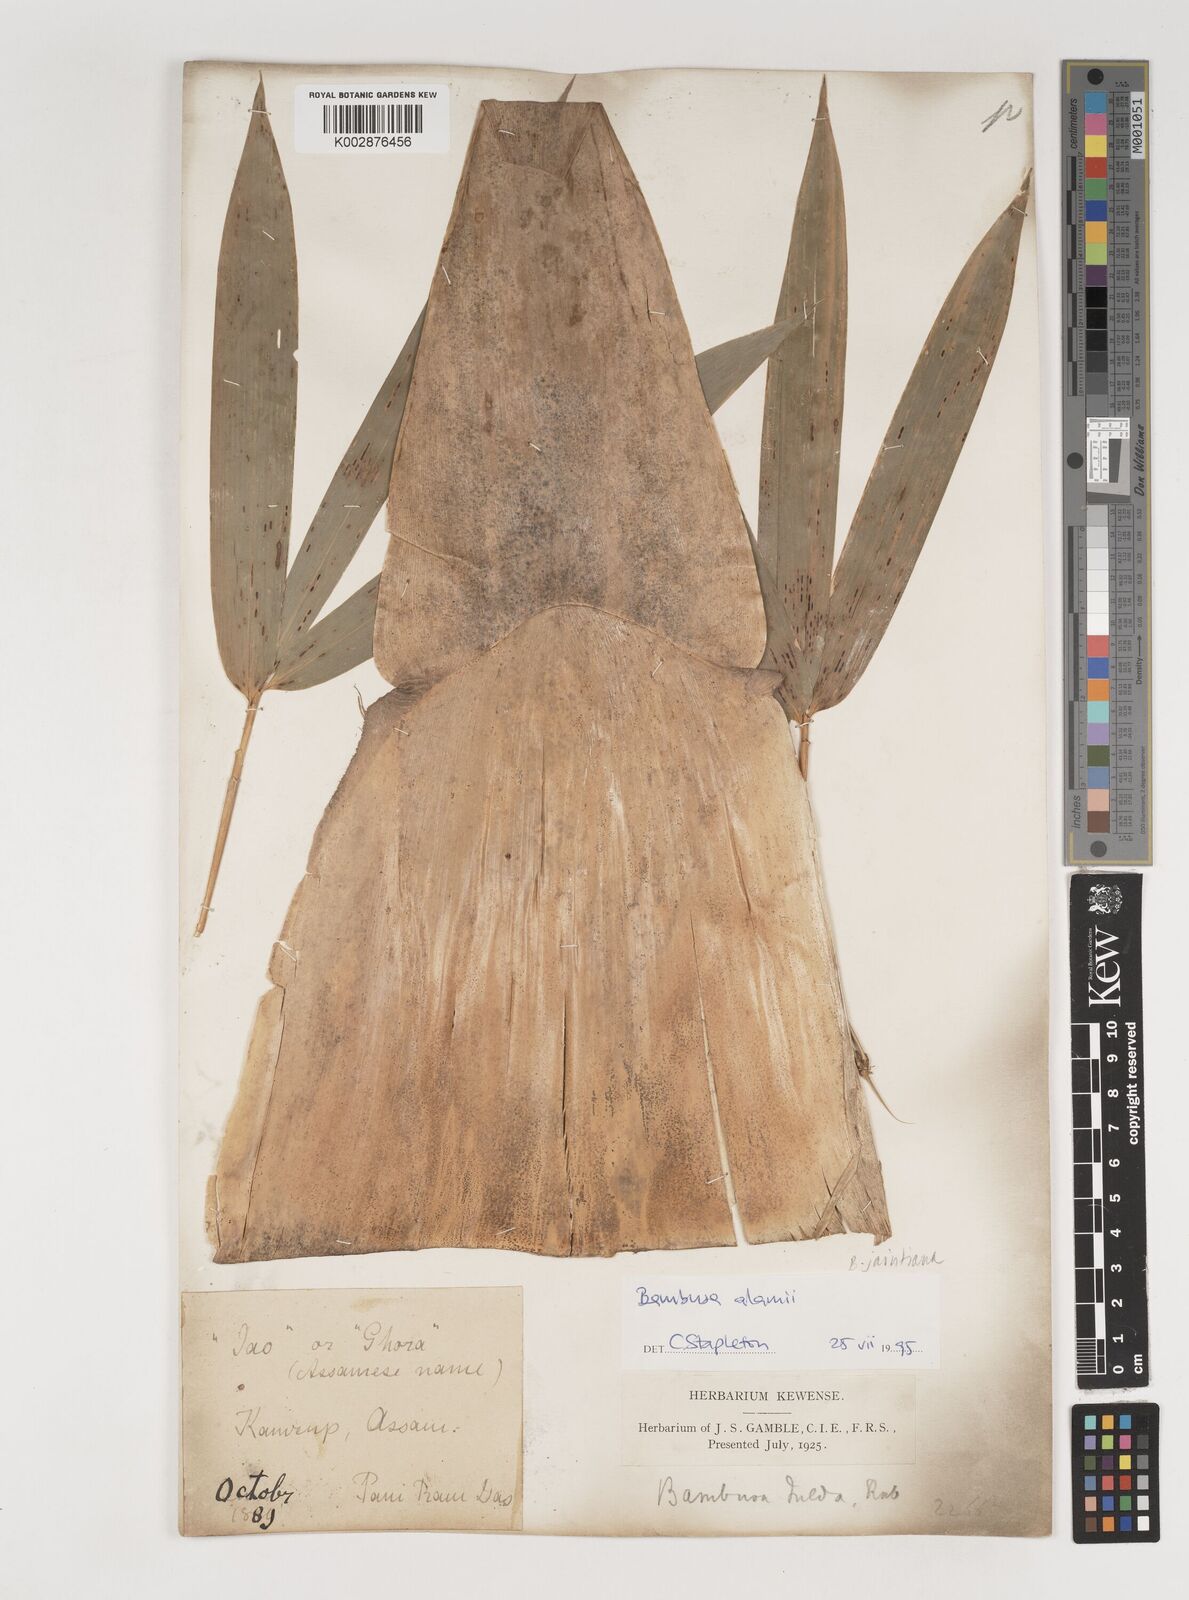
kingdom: Plantae
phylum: Tracheophyta
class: Liliopsida
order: Poales
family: Poaceae
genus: Bambusa
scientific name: Bambusa jaintiana
